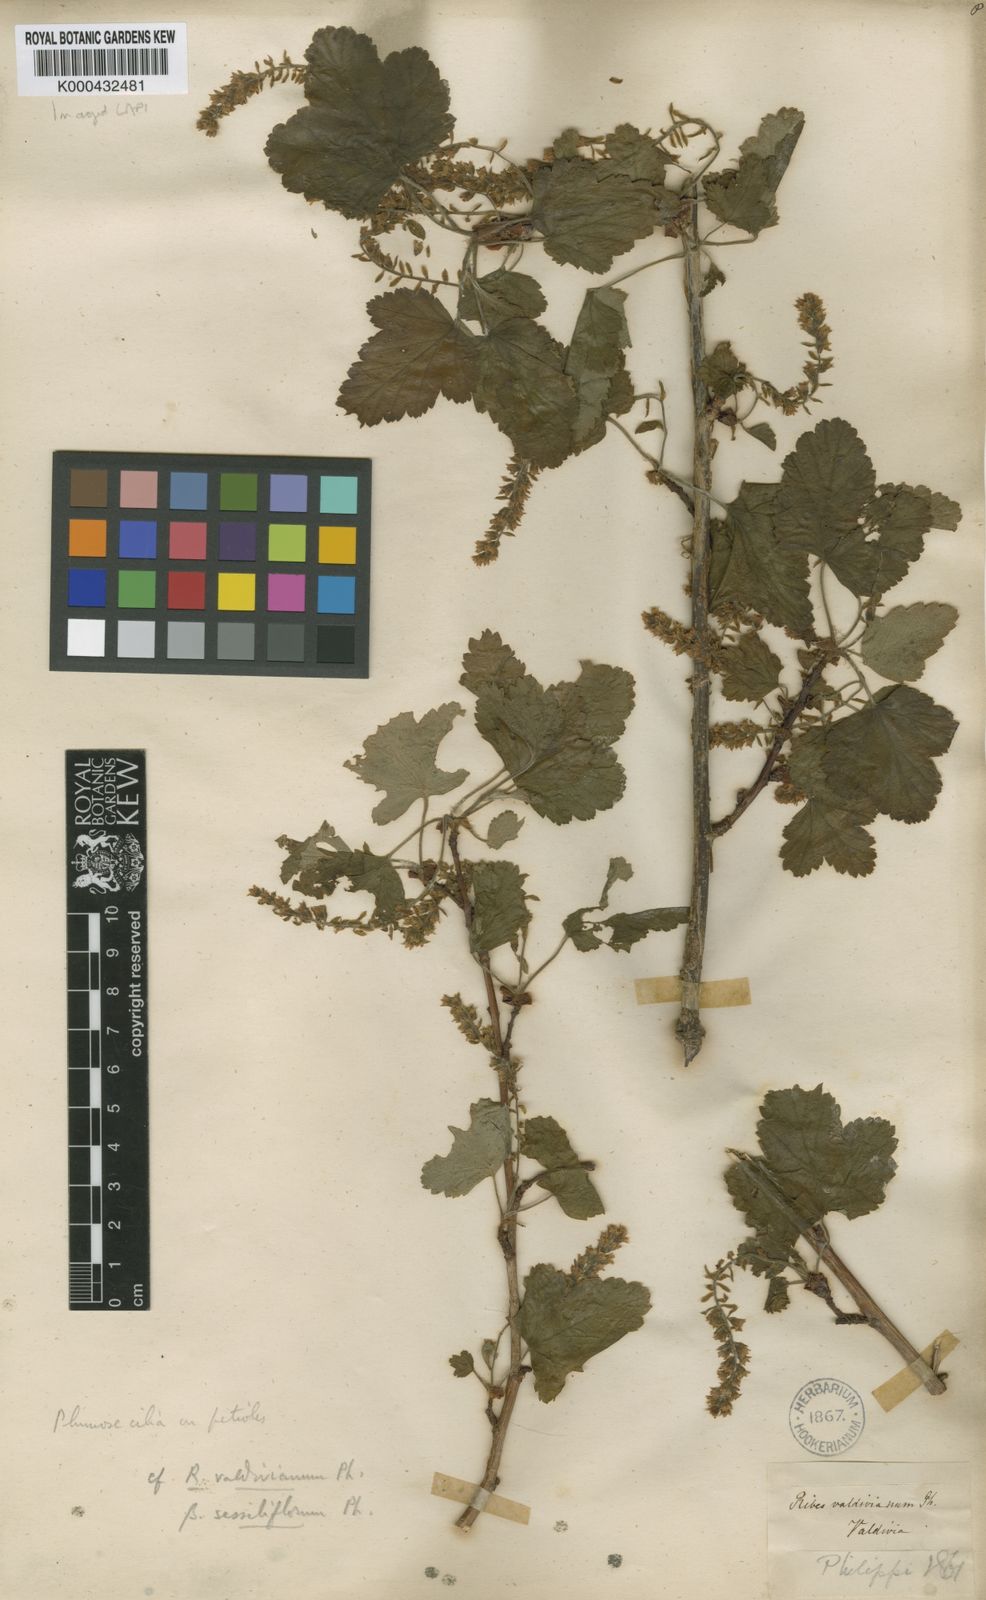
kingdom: Plantae
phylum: Tracheophyta
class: Magnoliopsida
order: Saxifragales
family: Grossulariaceae
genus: Ribes
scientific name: Ribes valdivianum
